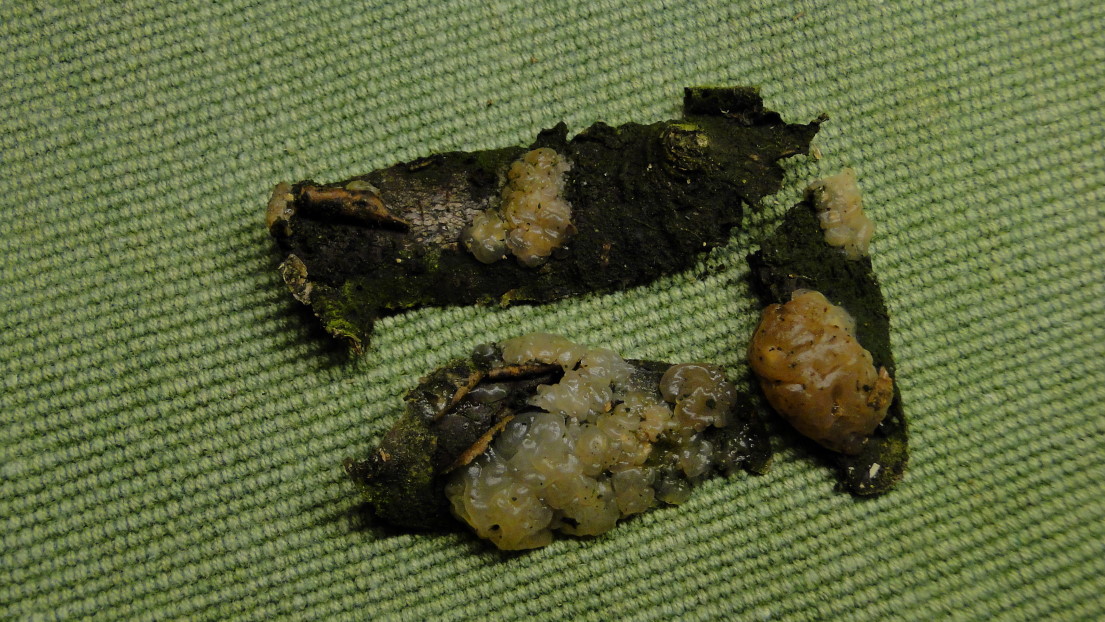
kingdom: Fungi
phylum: Basidiomycota
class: Agaricomycetes
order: Auriculariales
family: Hyaloriaceae
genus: Myxarium
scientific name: Myxarium nucleatum
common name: klar bævretop
